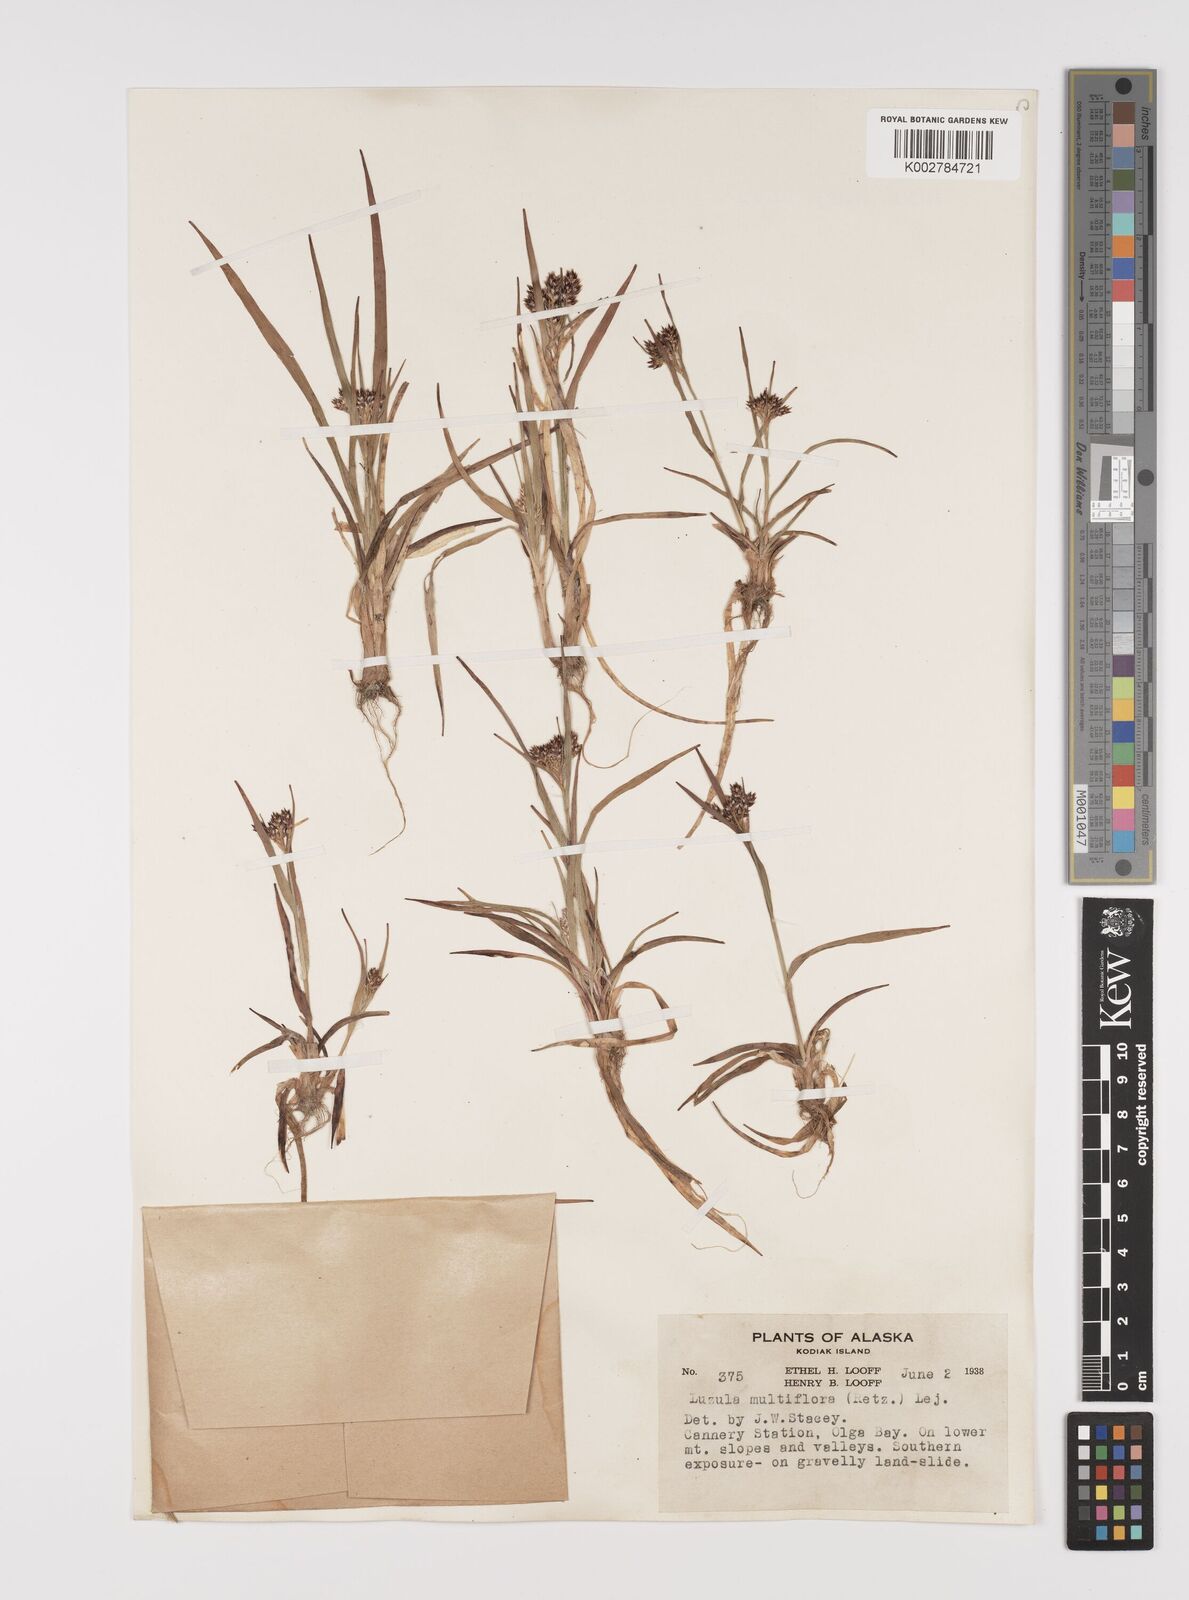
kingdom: Plantae
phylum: Tracheophyta
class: Liliopsida
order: Poales
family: Juncaceae
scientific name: Juncaceae
